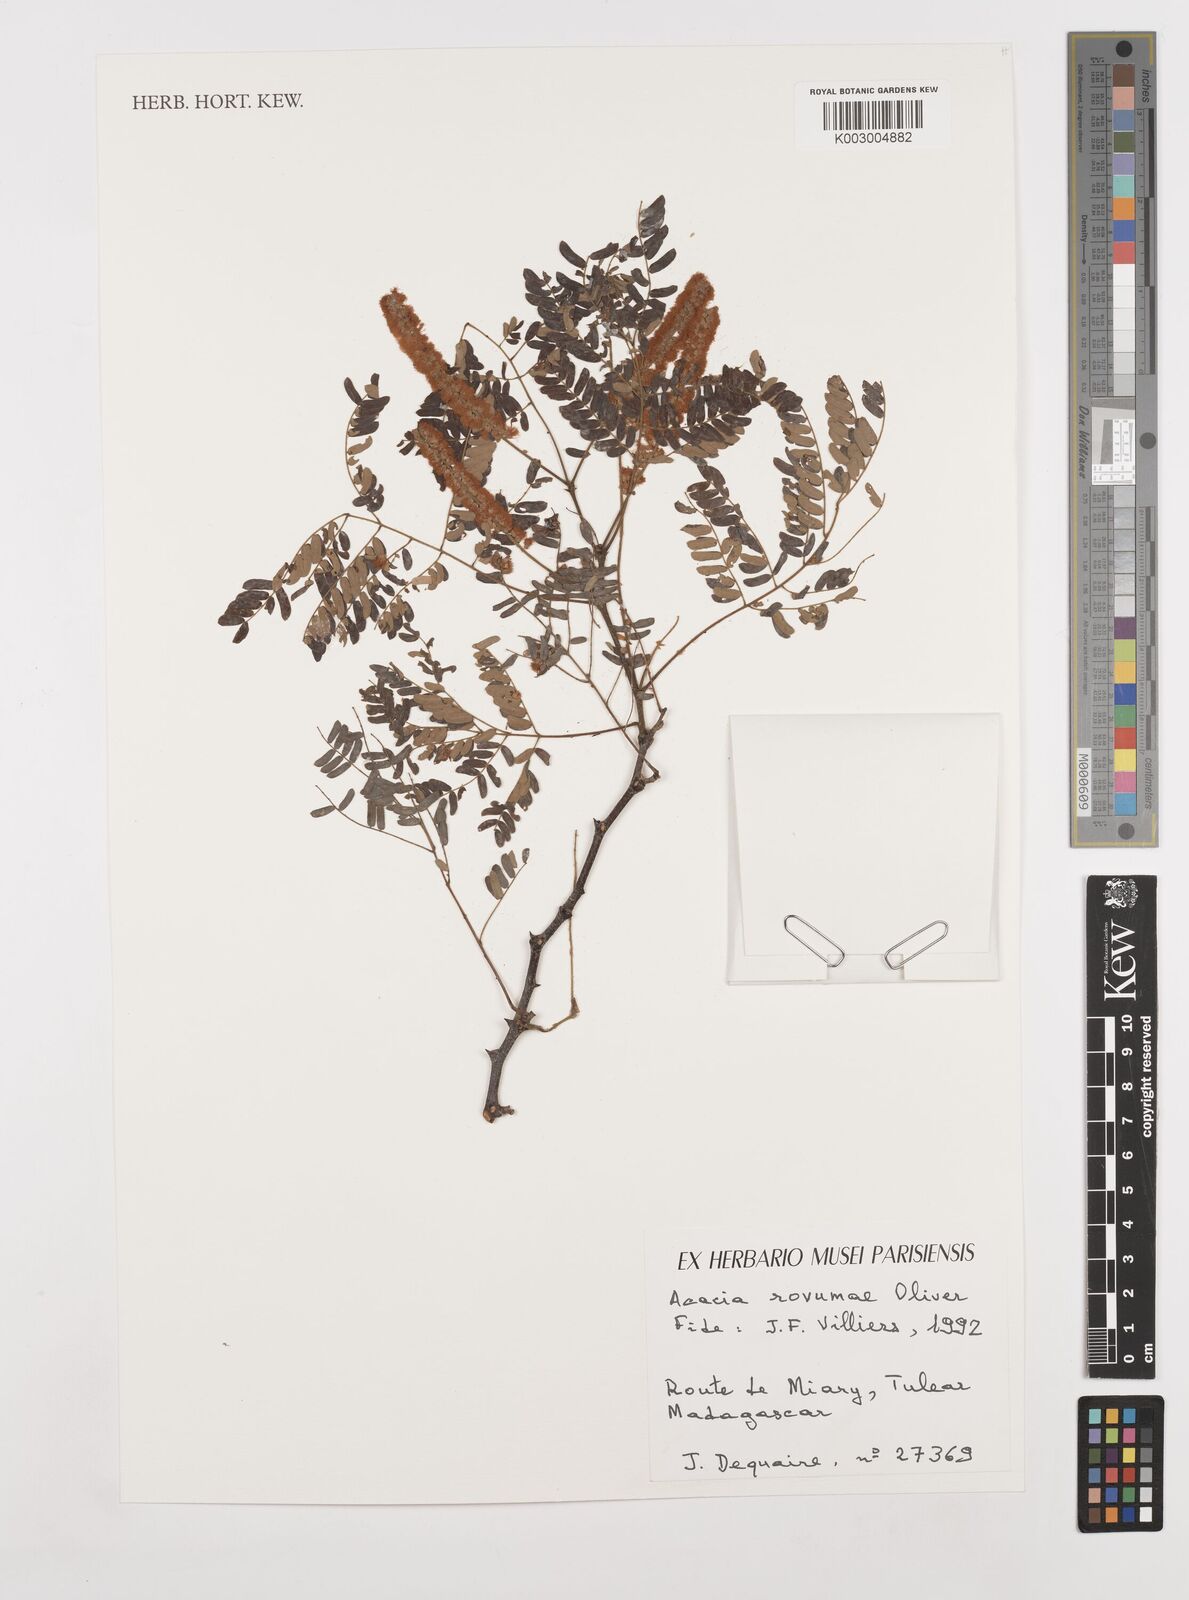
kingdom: Plantae
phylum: Tracheophyta
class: Magnoliopsida
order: Fabales
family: Fabaceae
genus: Senegalia
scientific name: Senegalia rovumae
